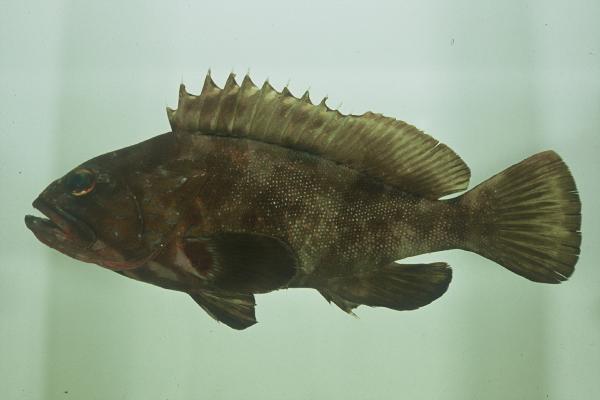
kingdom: Animalia
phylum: Chordata
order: Perciformes
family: Serranidae
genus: Epinephelus
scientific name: Epinephelus rivulatus
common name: Halfmoon grouper
